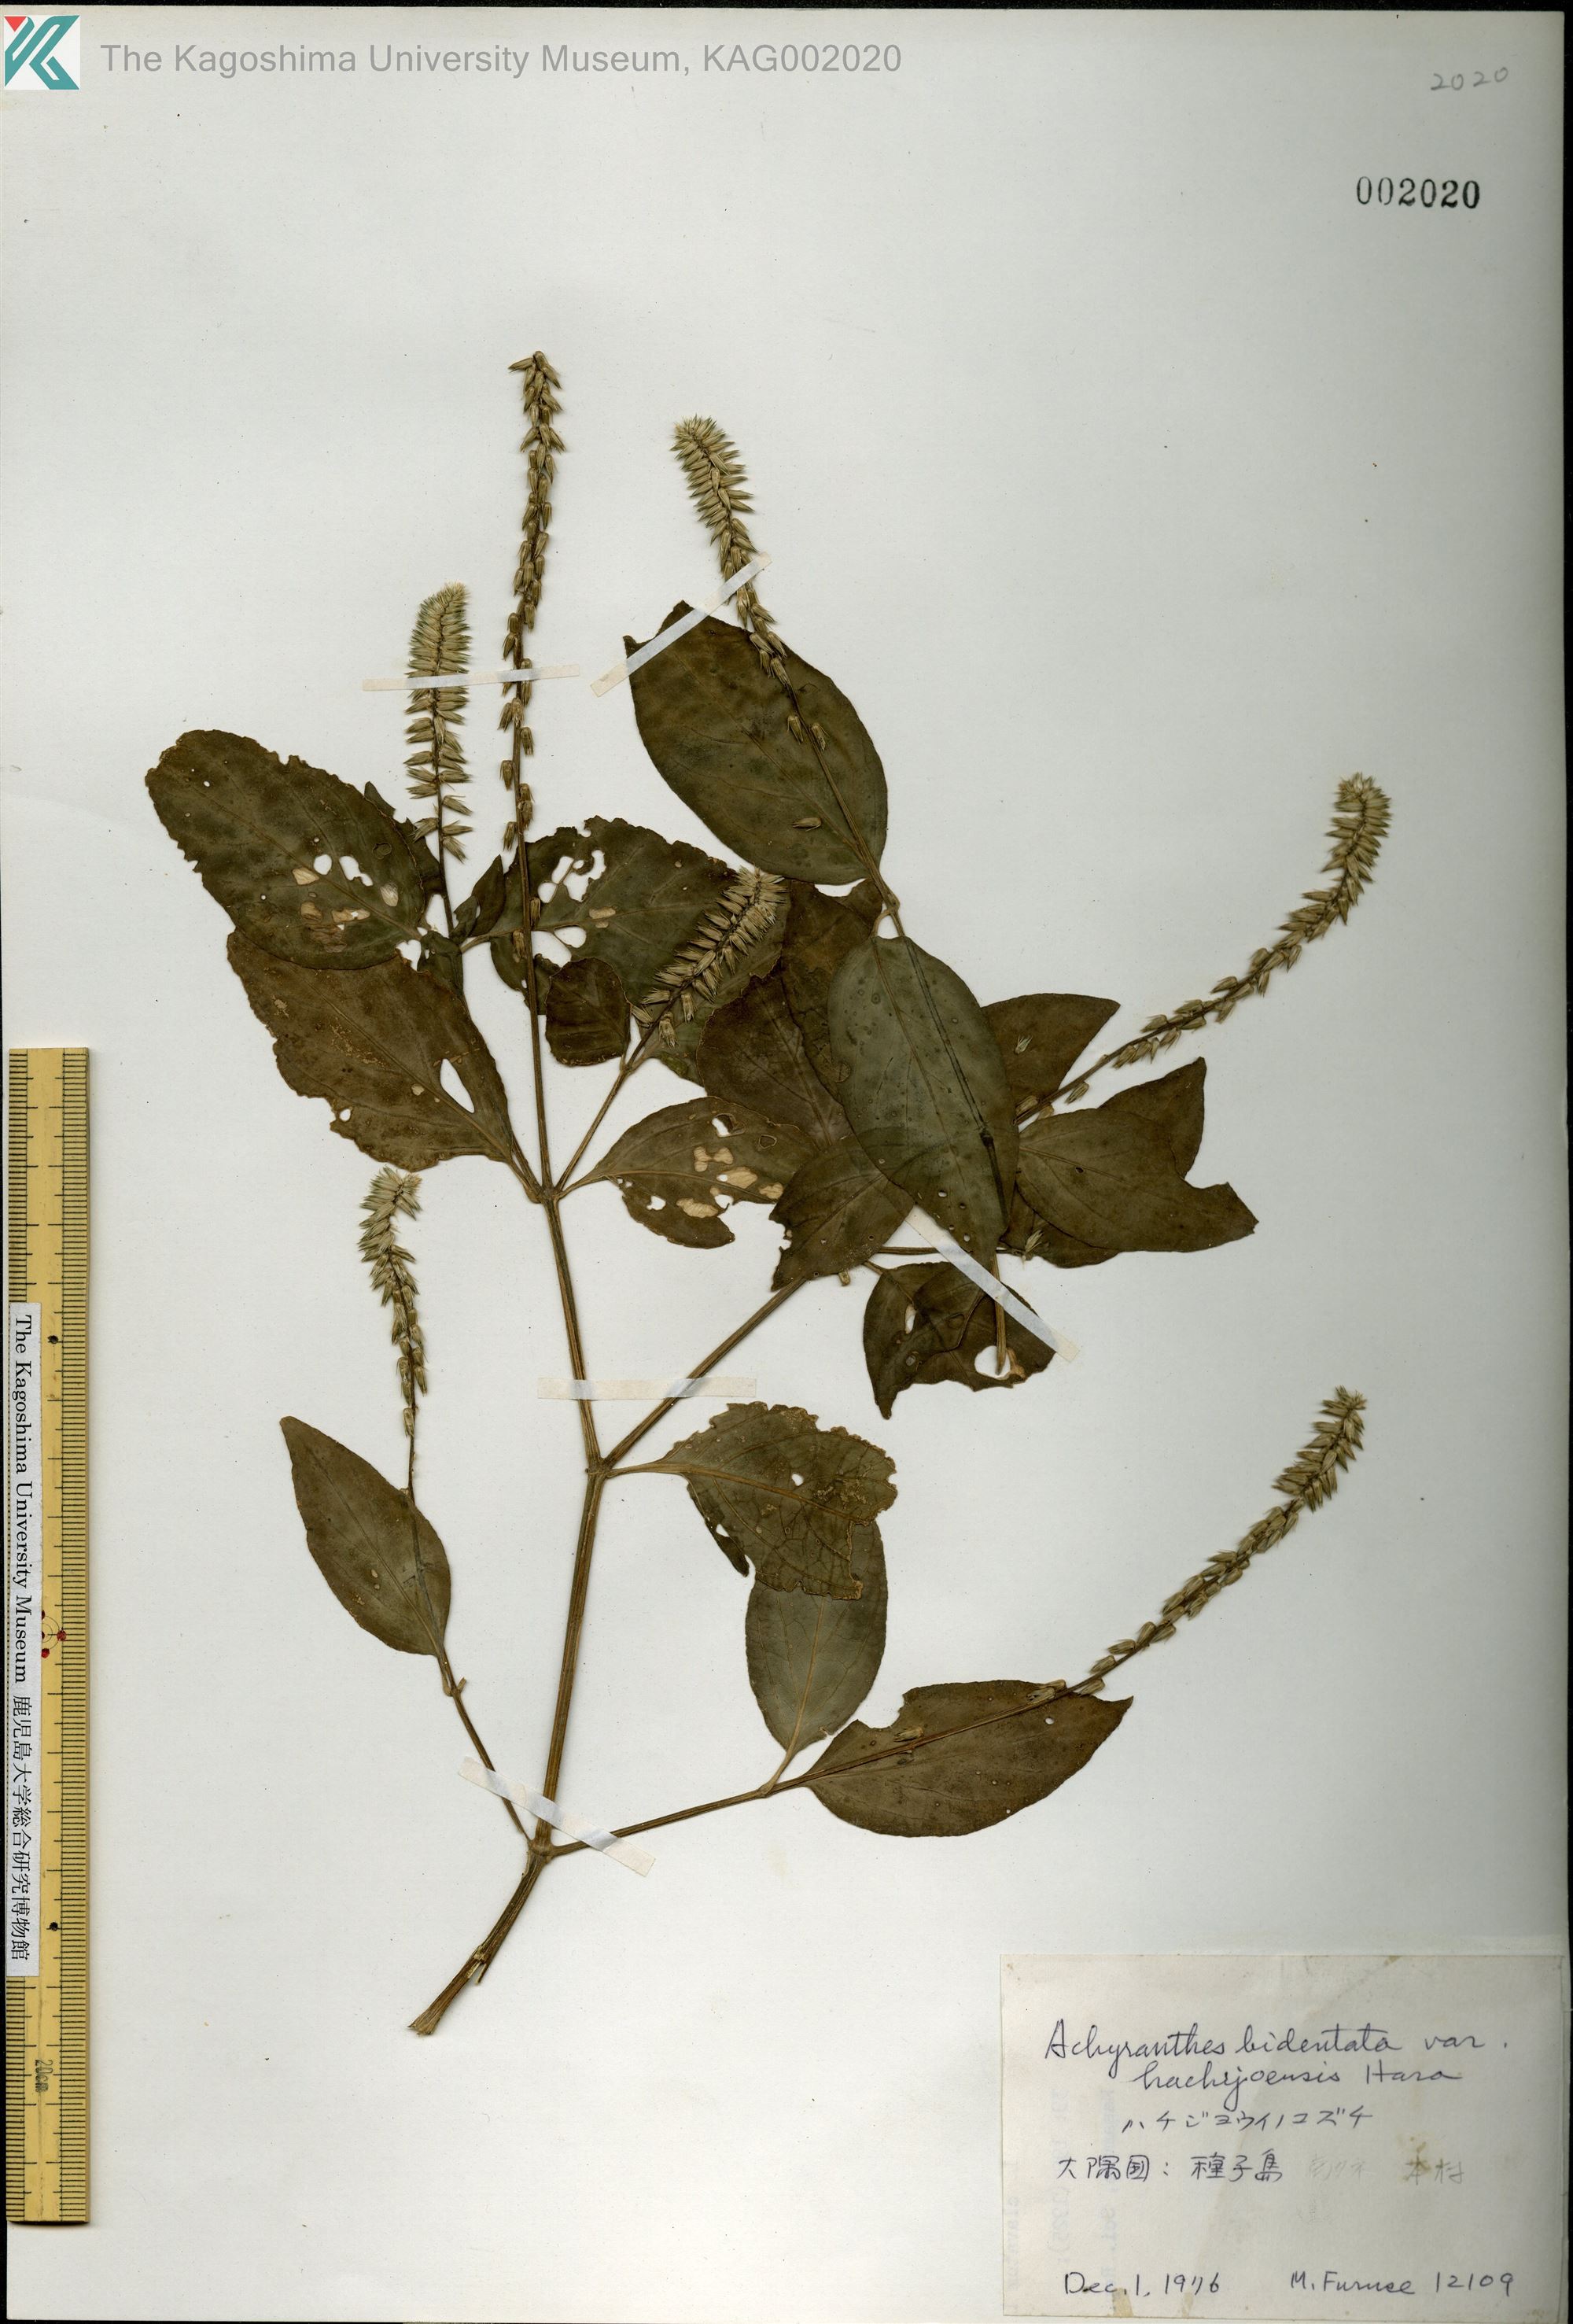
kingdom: Plantae
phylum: Tracheophyta
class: Magnoliopsida
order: Caryophyllales
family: Amaranthaceae
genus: Achyranthes
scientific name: Achyranthes bidentata
